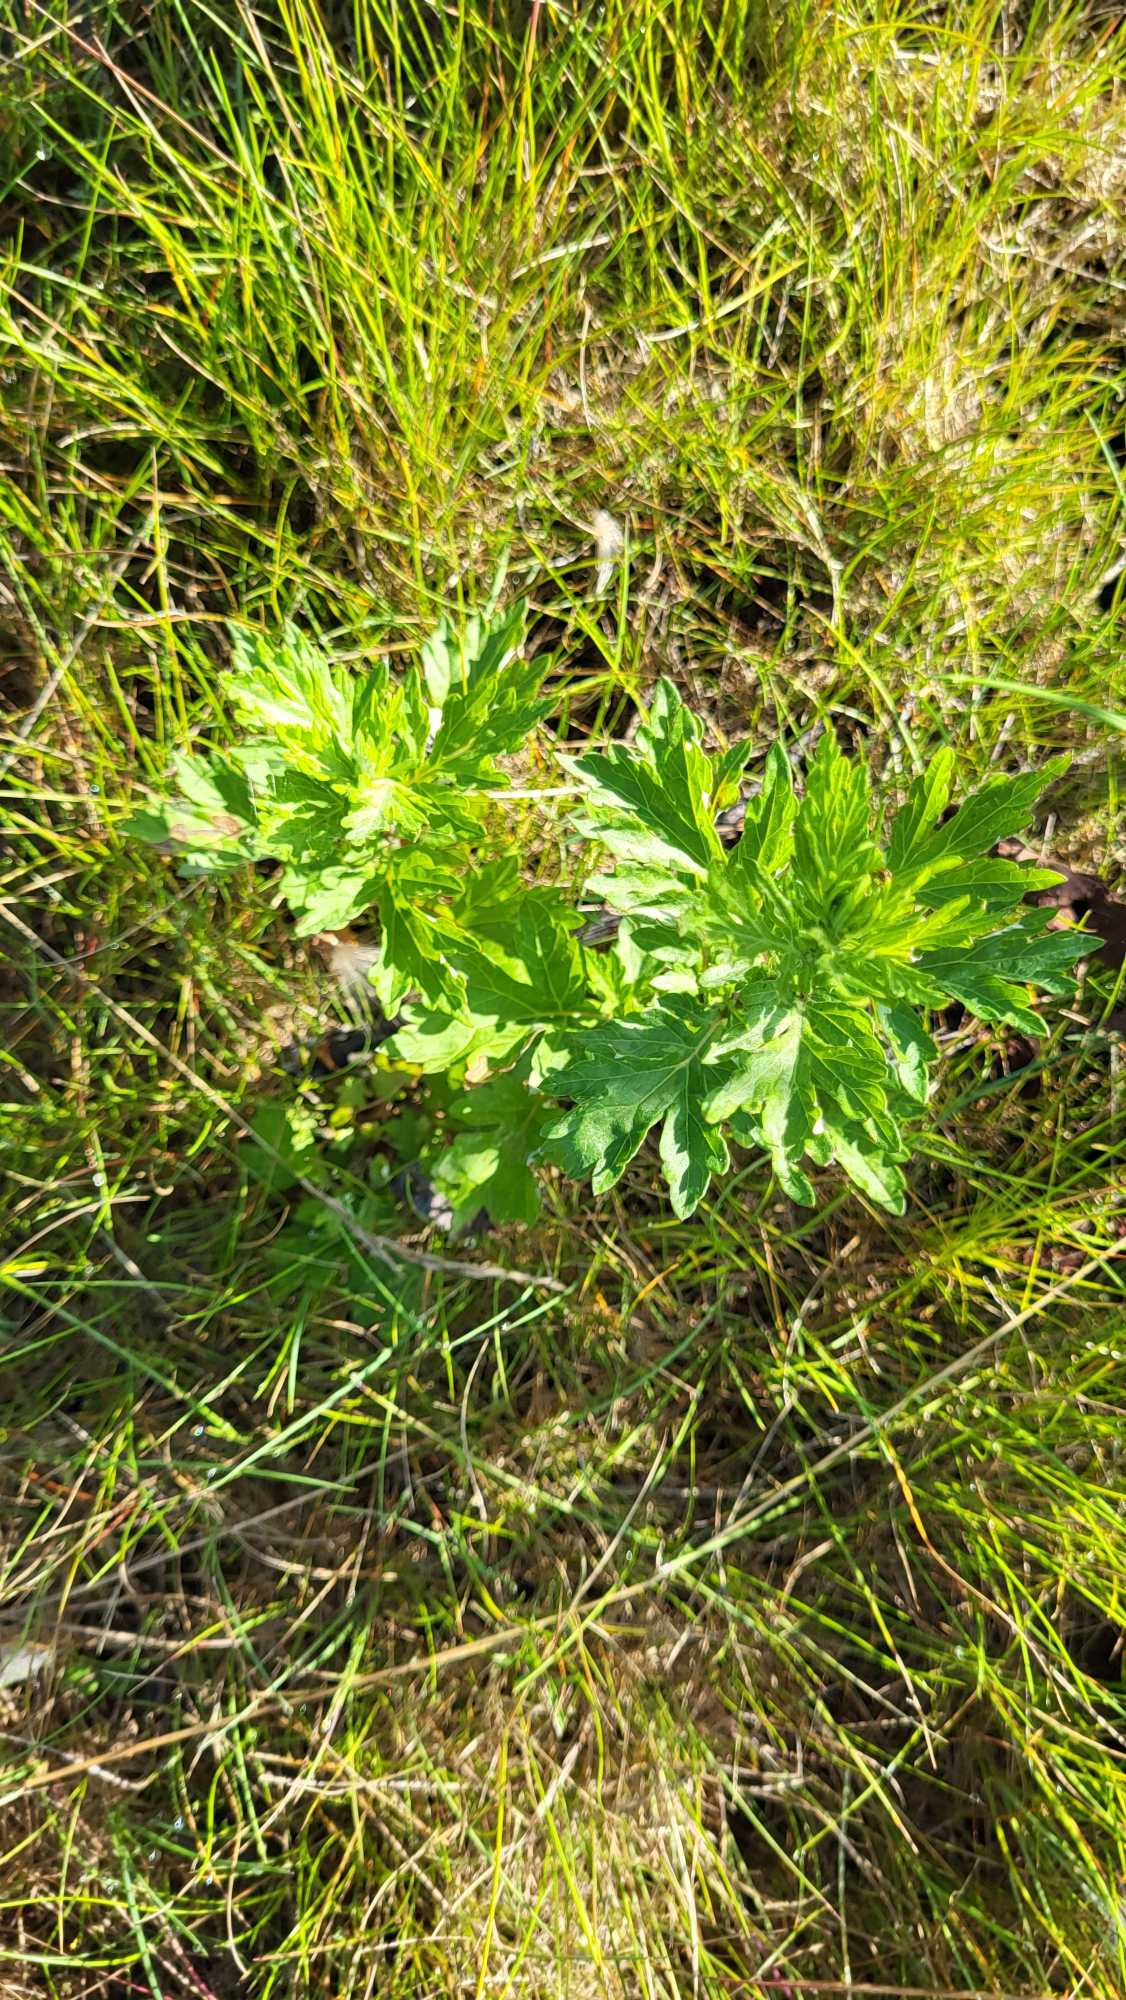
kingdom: Plantae
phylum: Tracheophyta
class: Magnoliopsida
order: Asterales
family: Asteraceae
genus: Artemisia
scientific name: Artemisia vulgaris
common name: Grå-bynke
